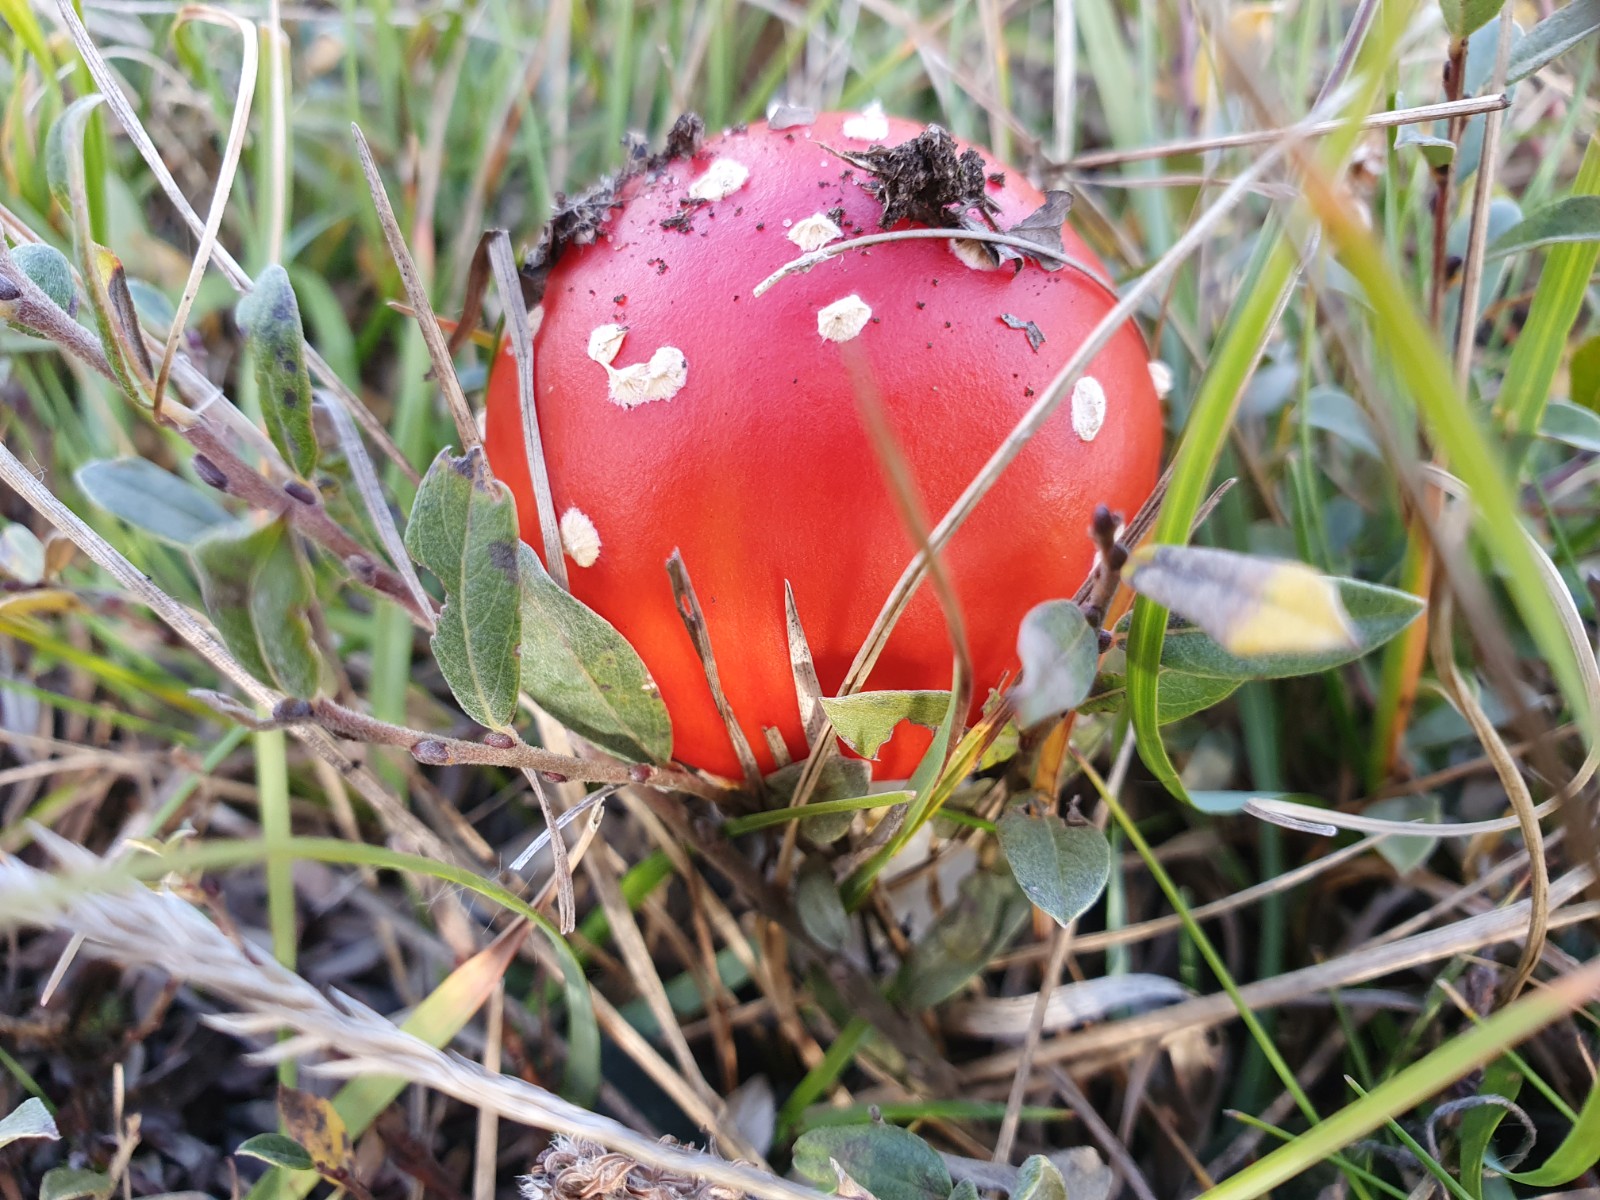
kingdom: Fungi
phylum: Basidiomycota
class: Agaricomycetes
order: Agaricales
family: Amanitaceae
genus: Amanita
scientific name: Amanita muscaria
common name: rød fluesvamp
